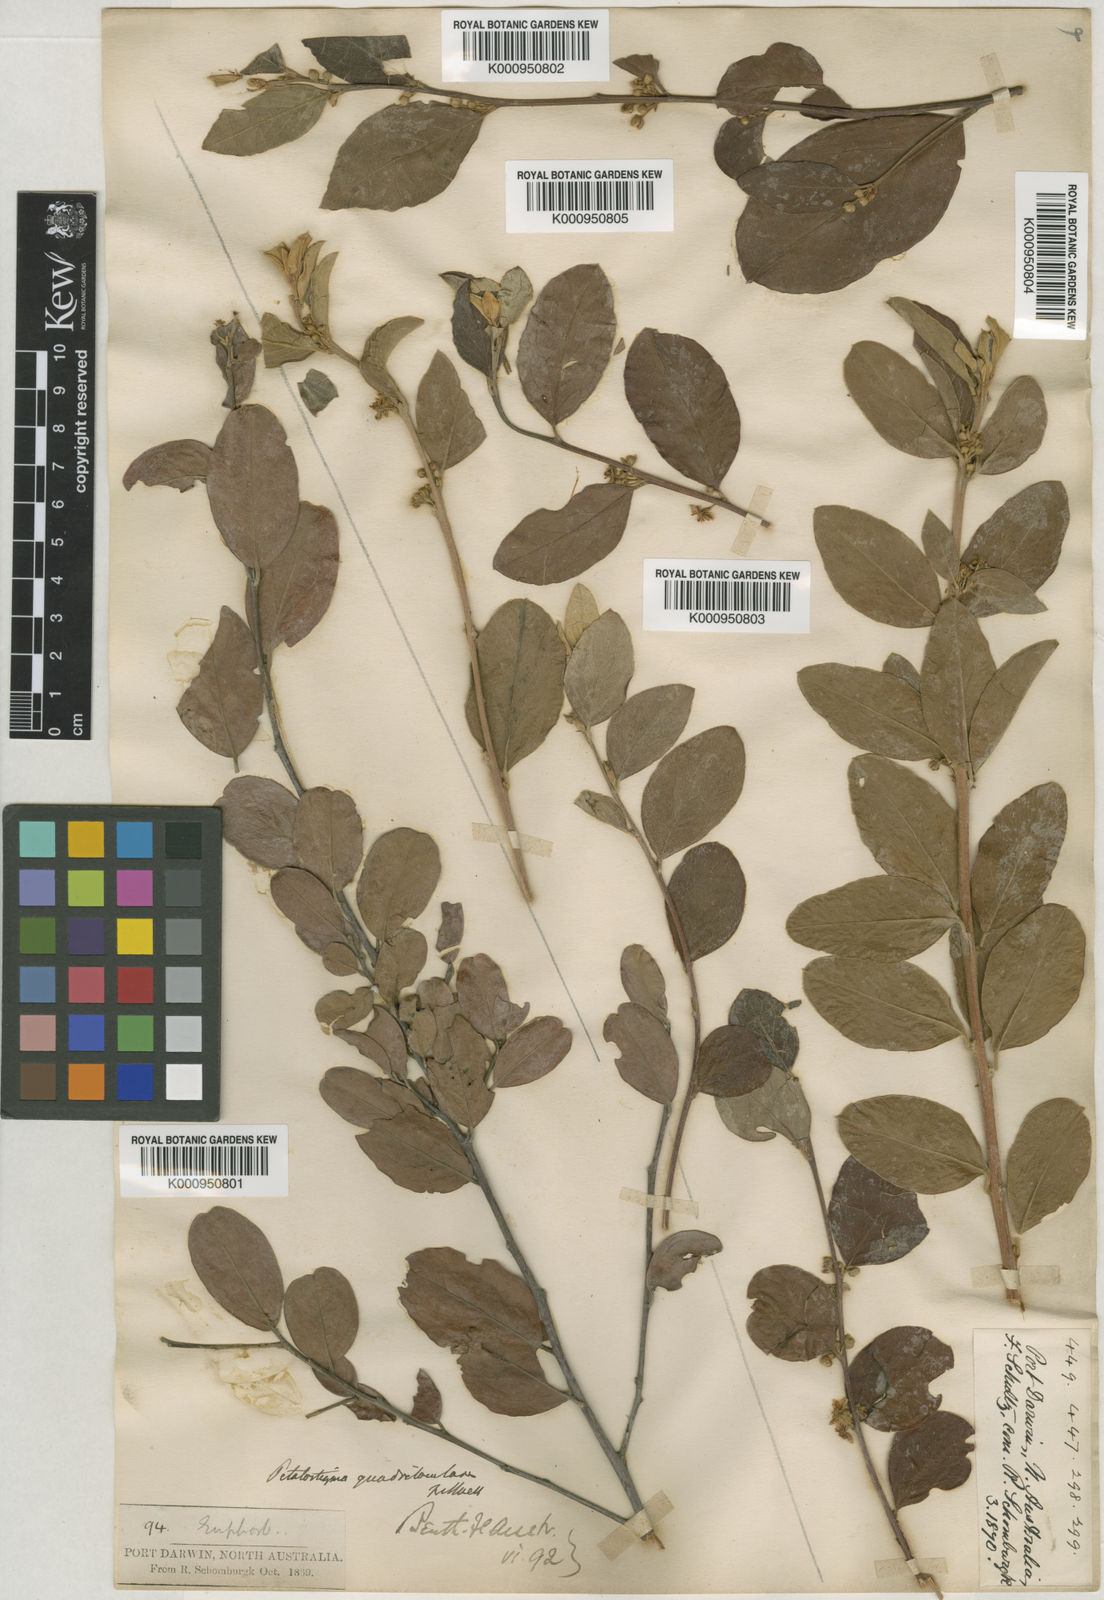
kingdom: Plantae
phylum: Tracheophyta
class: Magnoliopsida
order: Malpighiales
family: Picrodendraceae
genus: Petalostigma
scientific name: Petalostigma quadriloculare
